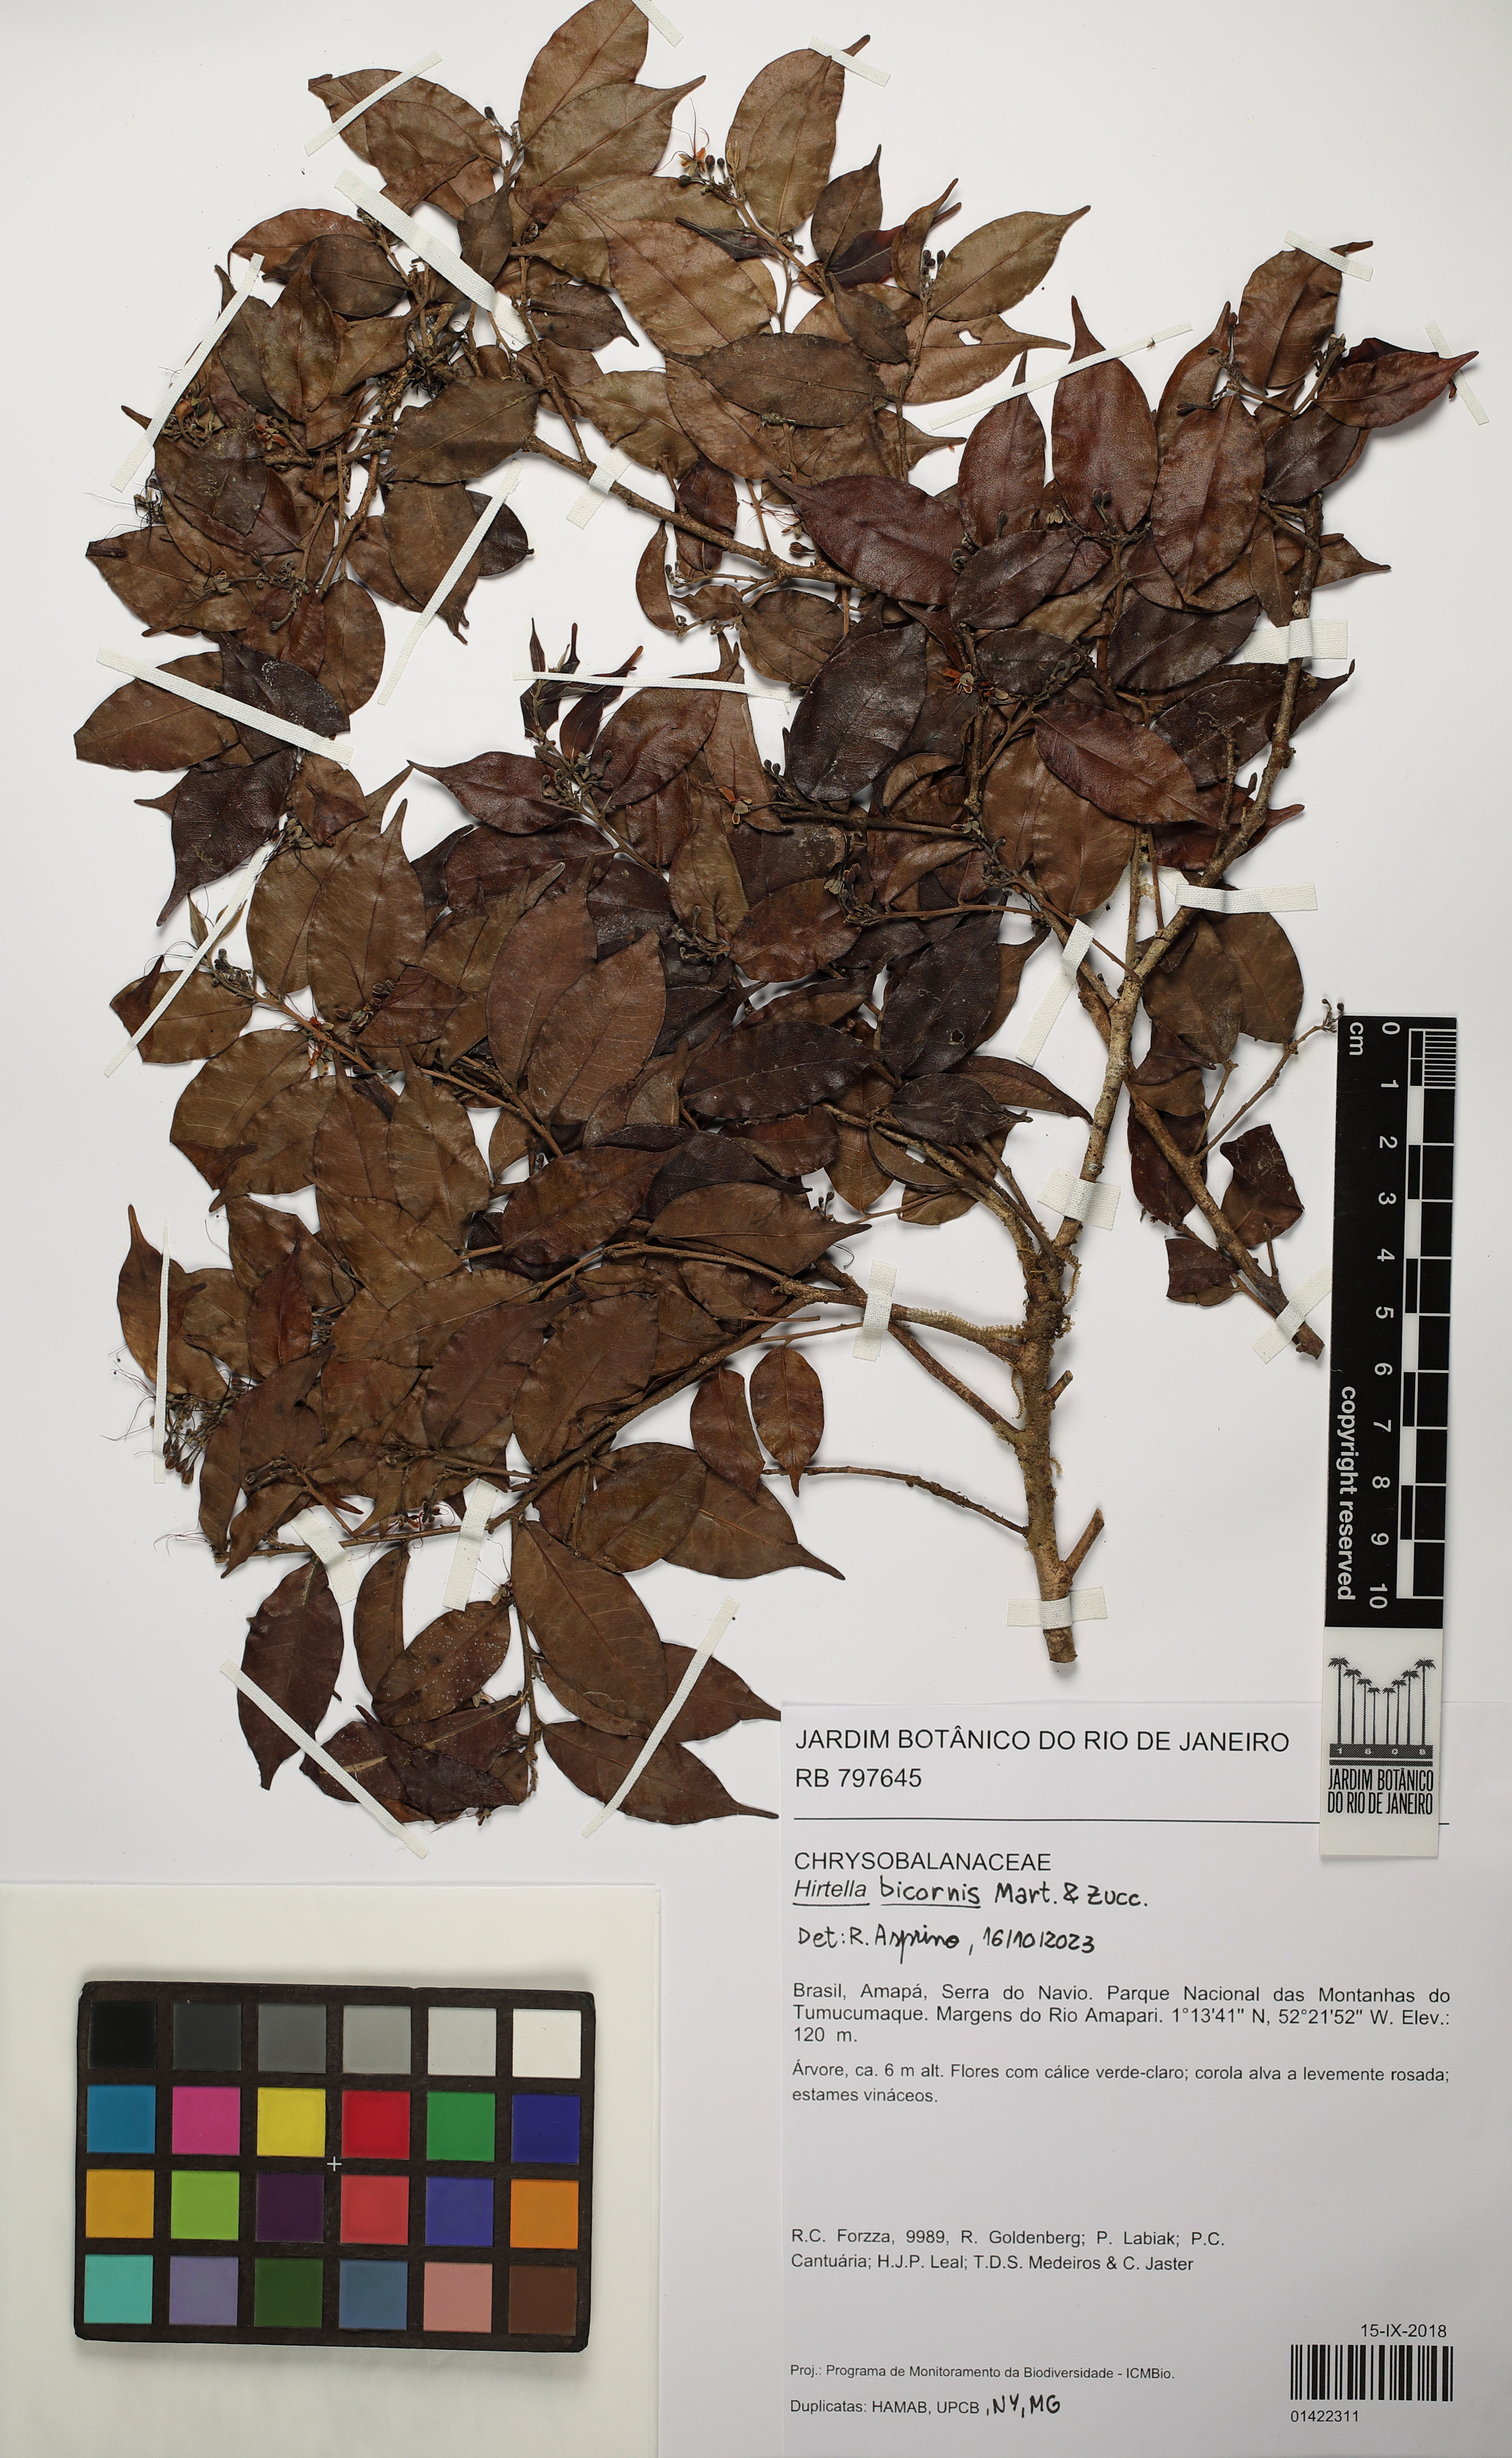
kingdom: Plantae
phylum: Tracheophyta
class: Magnoliopsida
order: Malpighiales
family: Chrysobalanaceae
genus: Hirtella
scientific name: Hirtella bicornis
